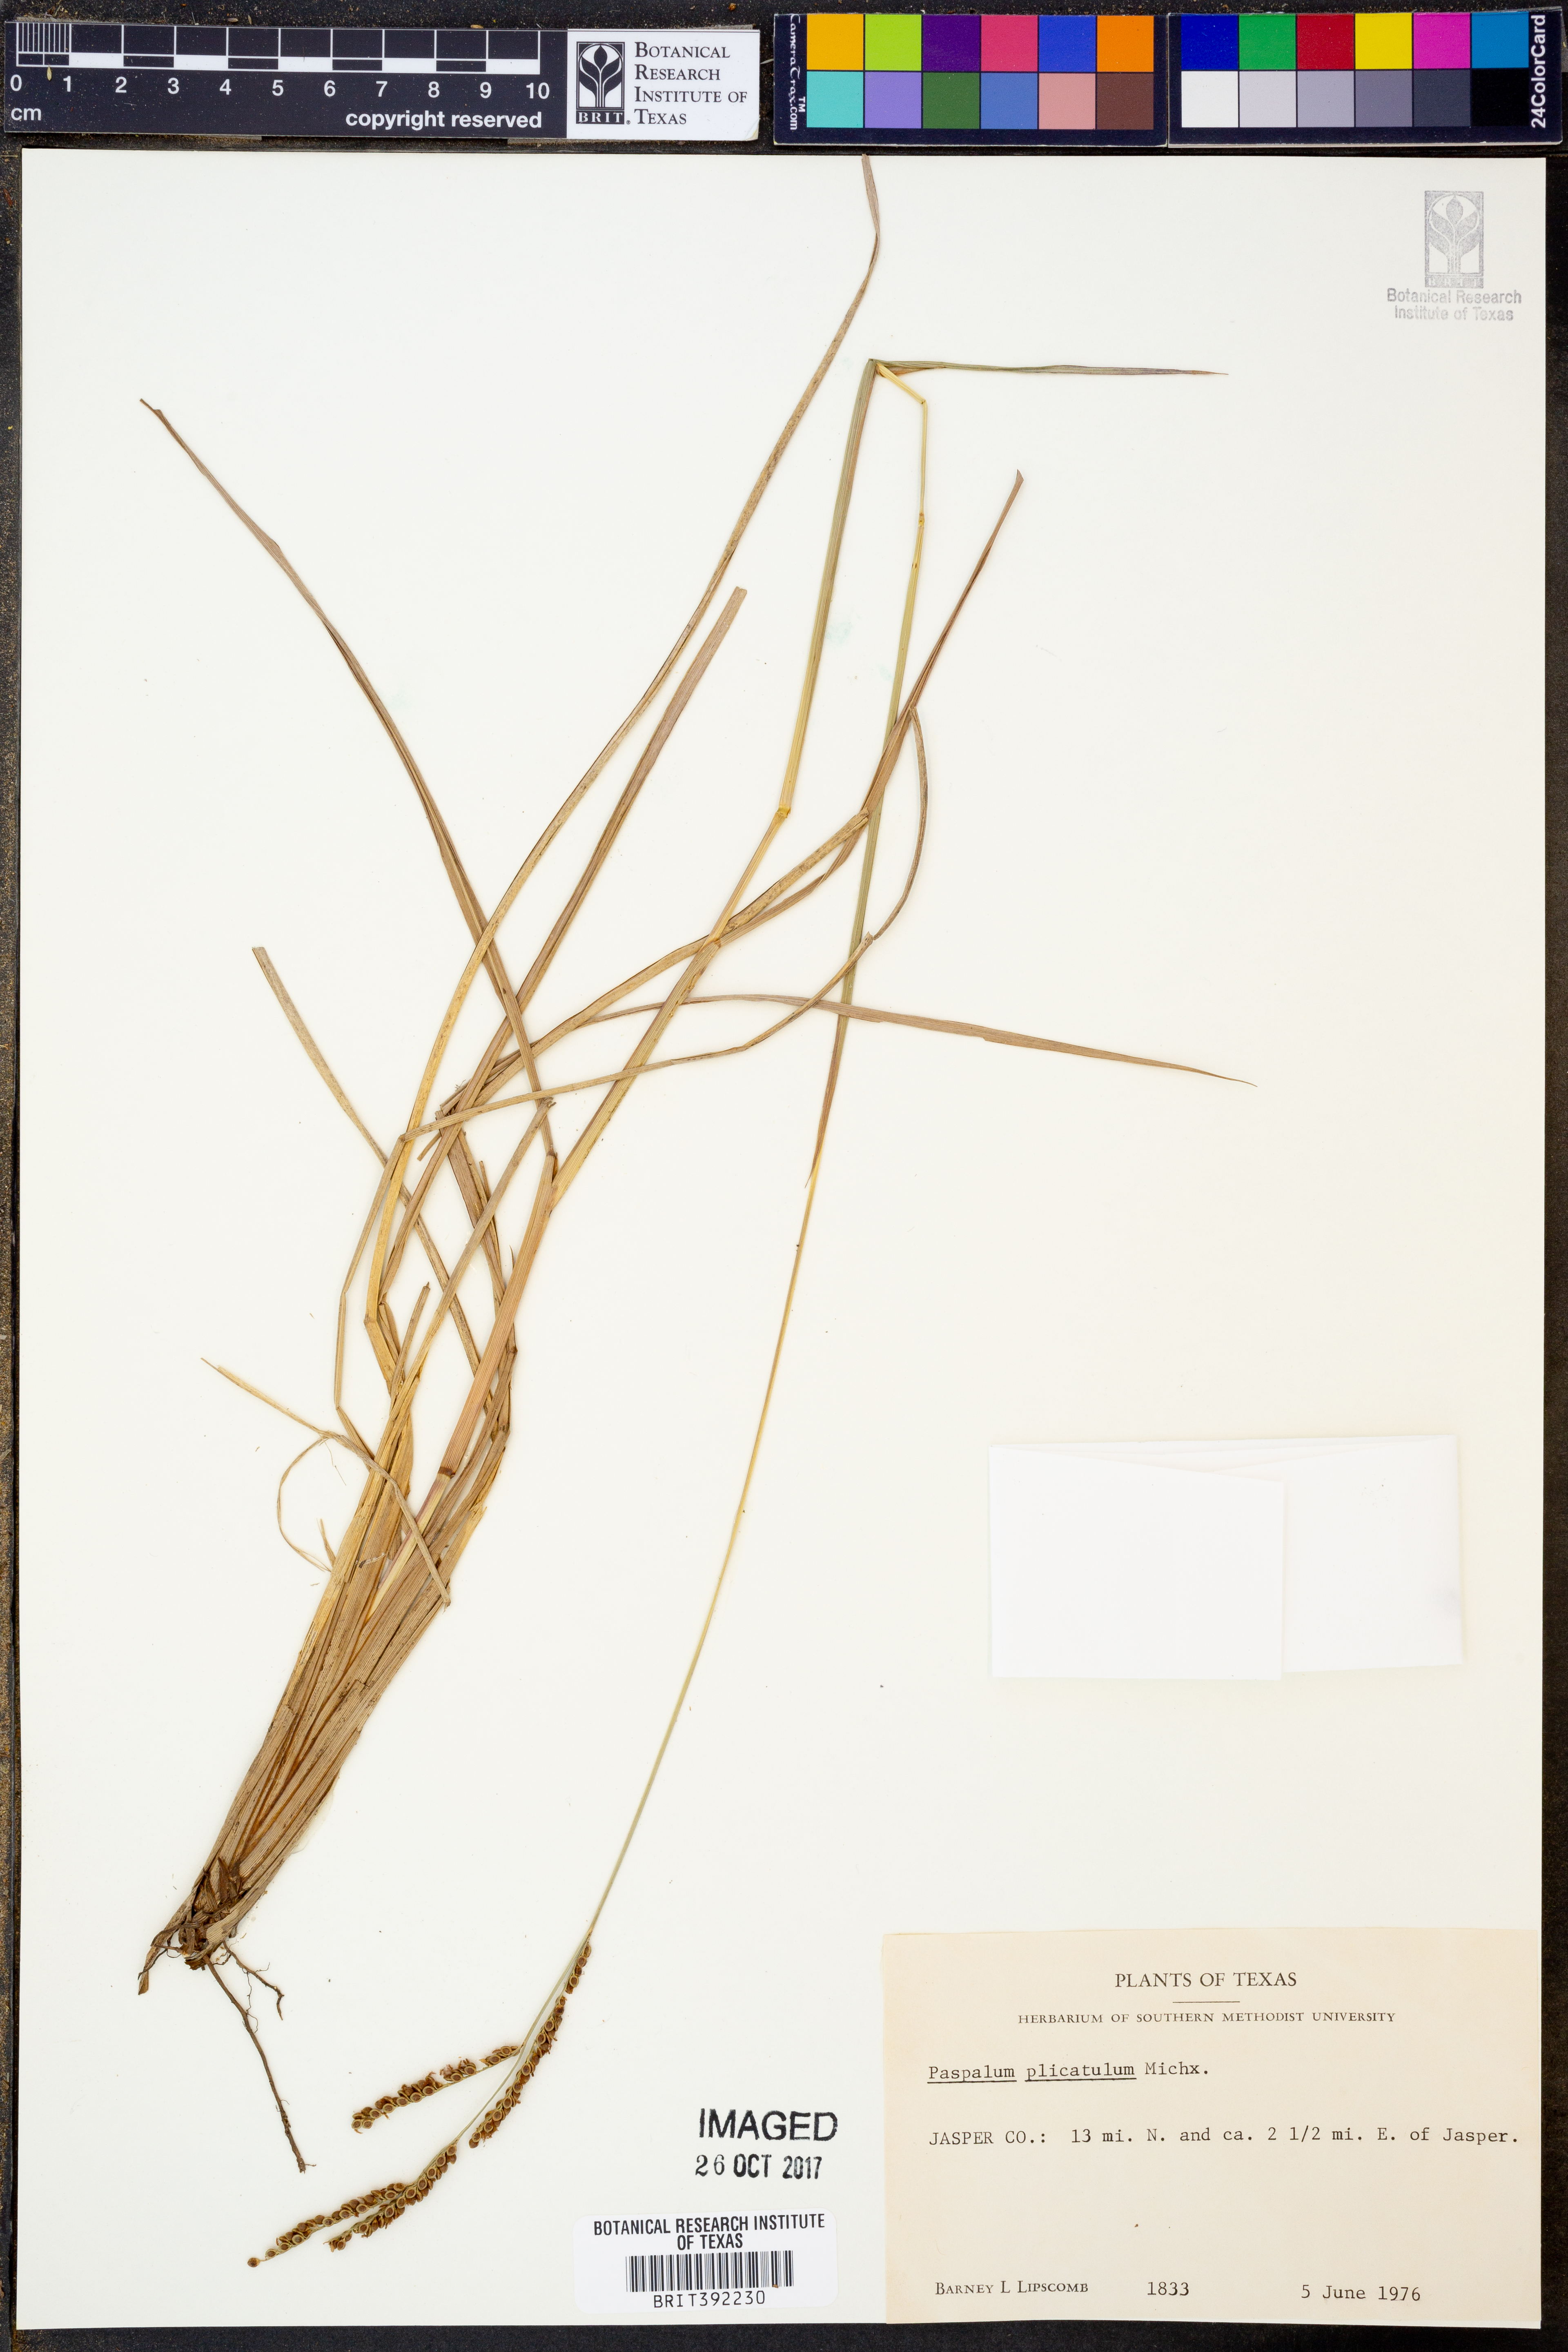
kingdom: Plantae
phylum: Tracheophyta
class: Liliopsida
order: Poales
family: Poaceae
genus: Paspalum
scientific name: Paspalum plicatulum
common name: Top paspalum
